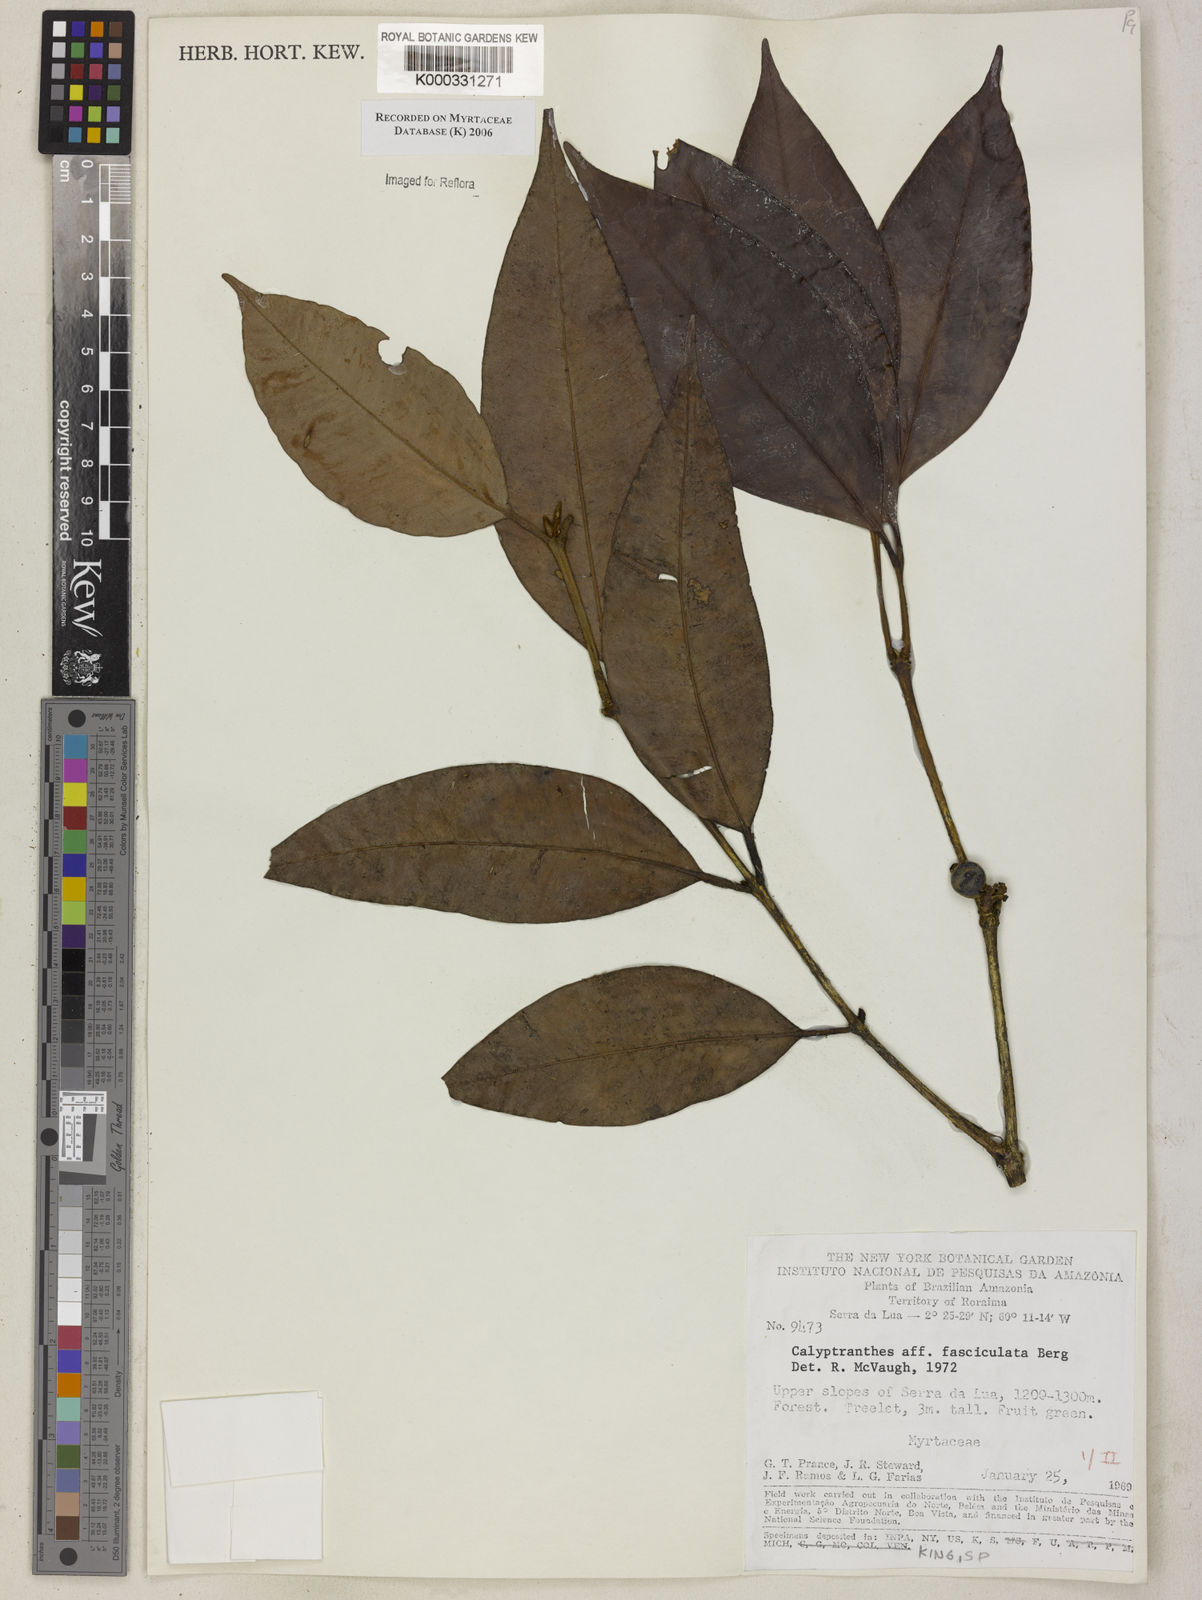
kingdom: Plantae
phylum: Tracheophyta
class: Magnoliopsida
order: Myrtales
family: Myrtaceae
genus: Myrcia
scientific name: Myrcia fasciculata
